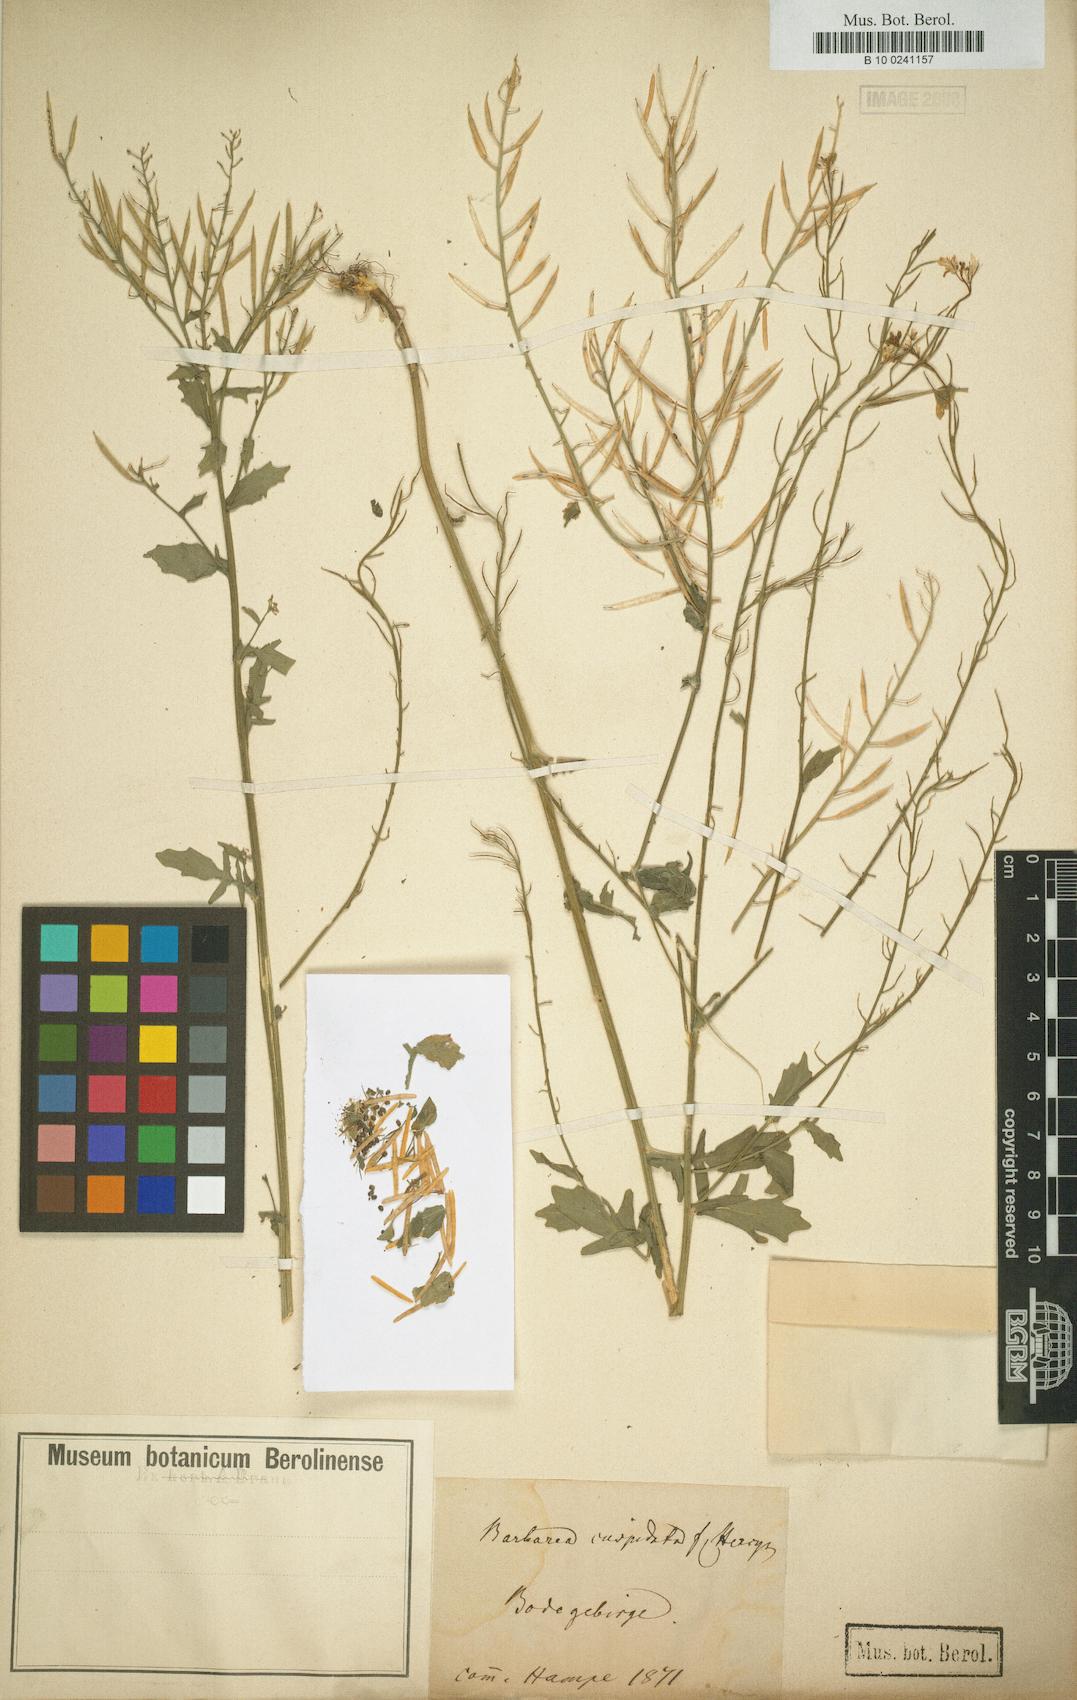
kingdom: Plantae
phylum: Tracheophyta
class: Magnoliopsida
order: Brassicales
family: Brassicaceae
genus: Barbarea
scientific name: Barbarea
